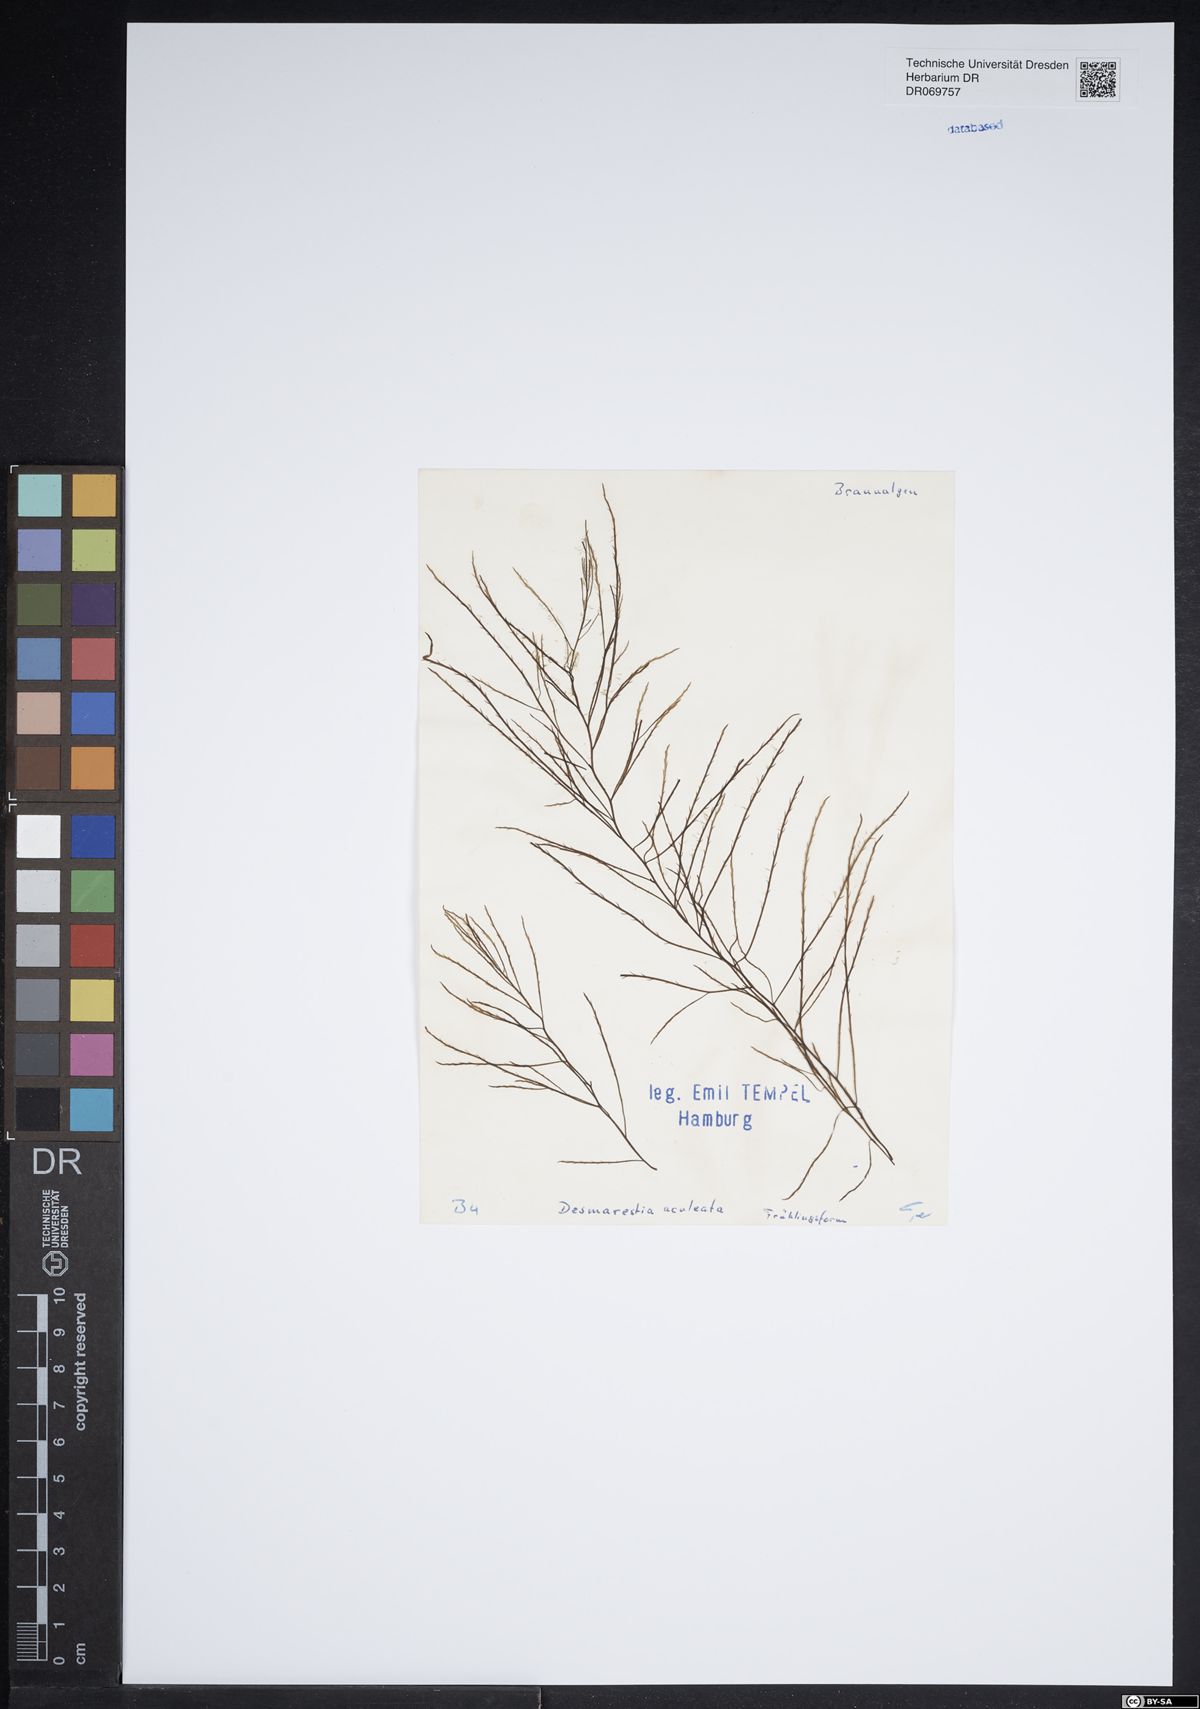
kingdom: Chromista
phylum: Ochrophyta
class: Phaeophyceae
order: Desmarestiales
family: Desmarestiaceae
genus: Desmarestia
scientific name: Desmarestia aculeata
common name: Witch's hair
